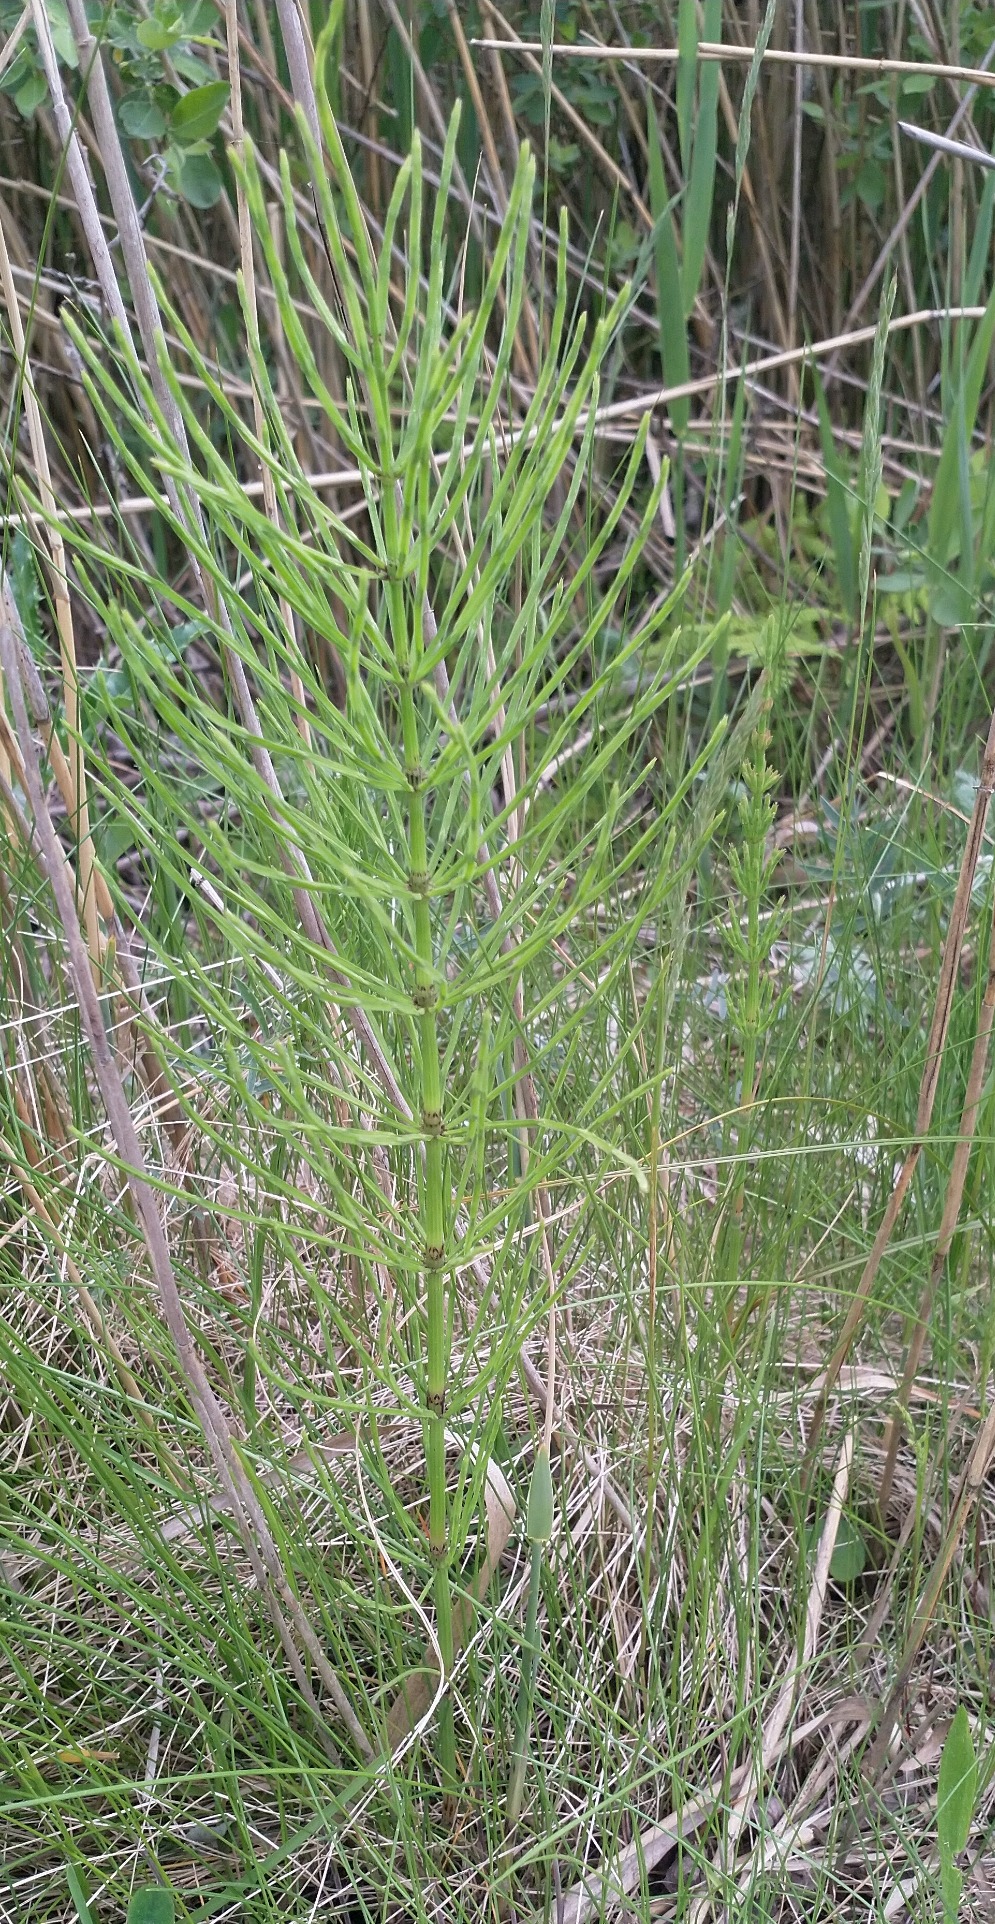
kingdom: Plantae
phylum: Tracheophyta
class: Polypodiopsida
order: Equisetales
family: Equisetaceae
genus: Equisetum
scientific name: Equisetum arvense
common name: Ager-padderok
